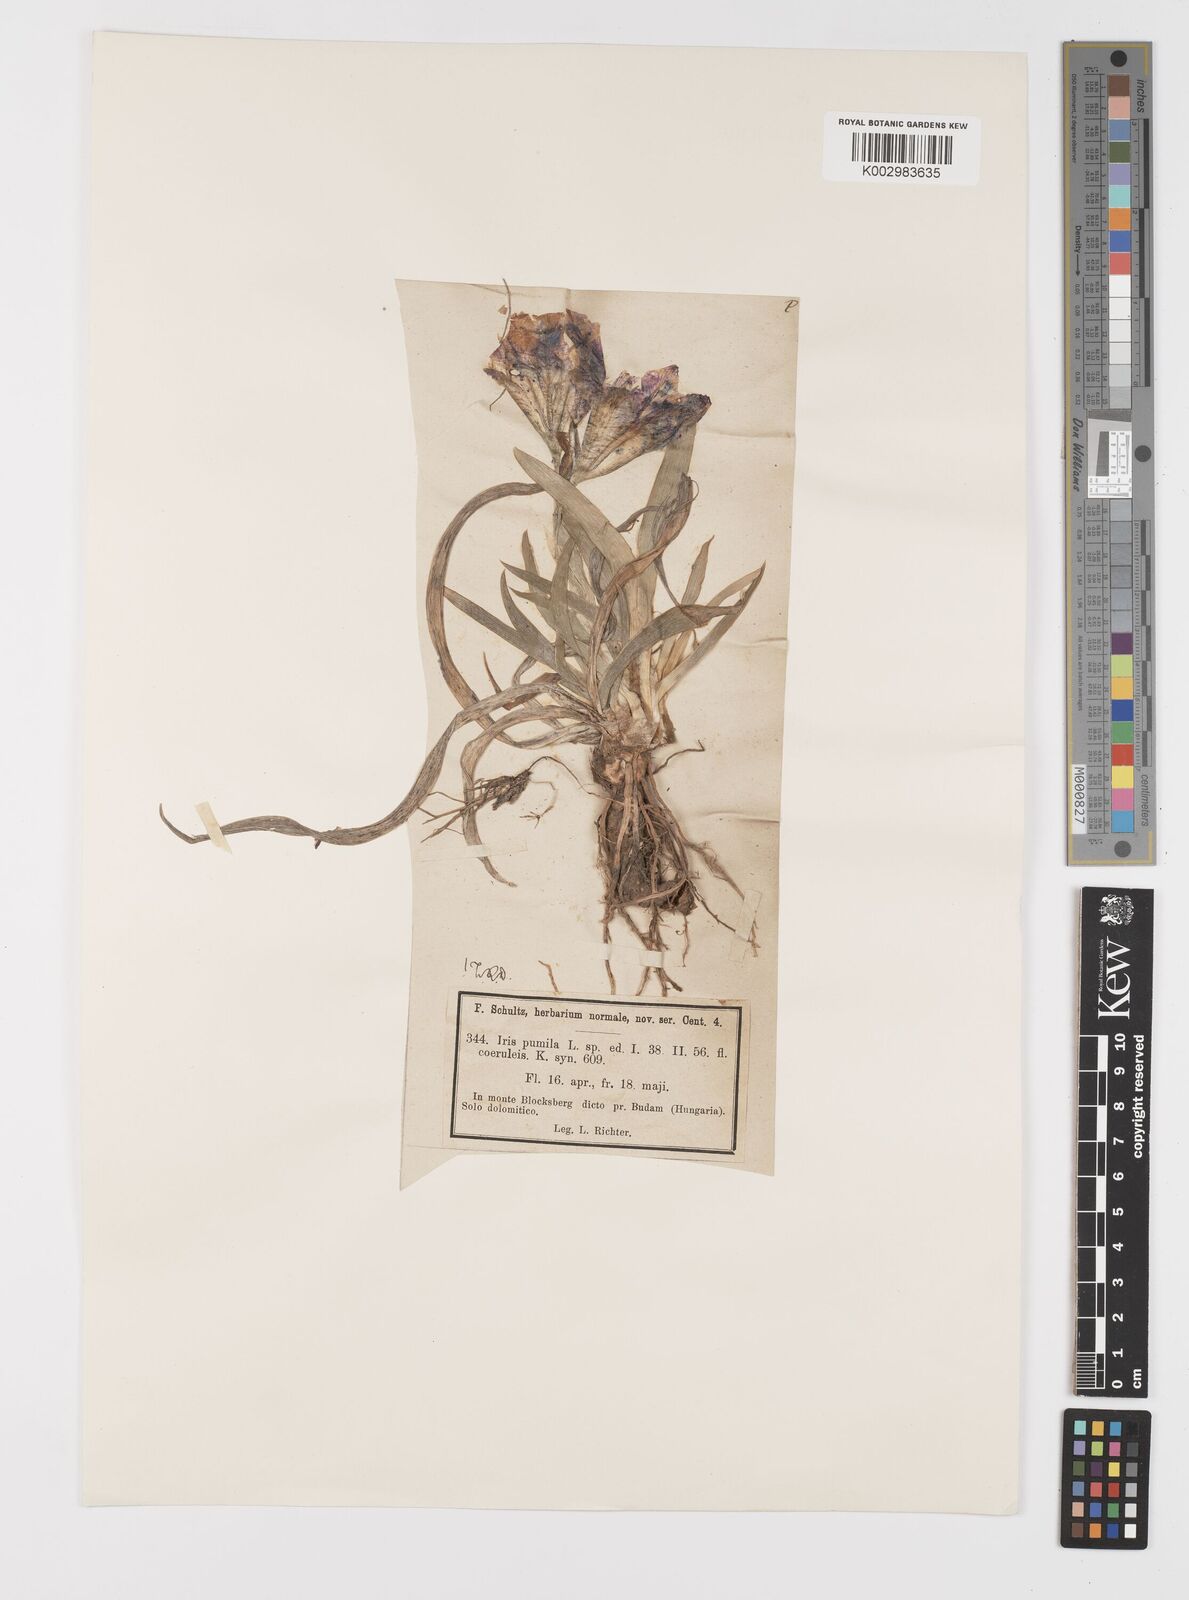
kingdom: Plantae
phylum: Tracheophyta
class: Liliopsida
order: Asparagales
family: Iridaceae
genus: Iris
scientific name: Iris pumila
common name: Dwarf iris
